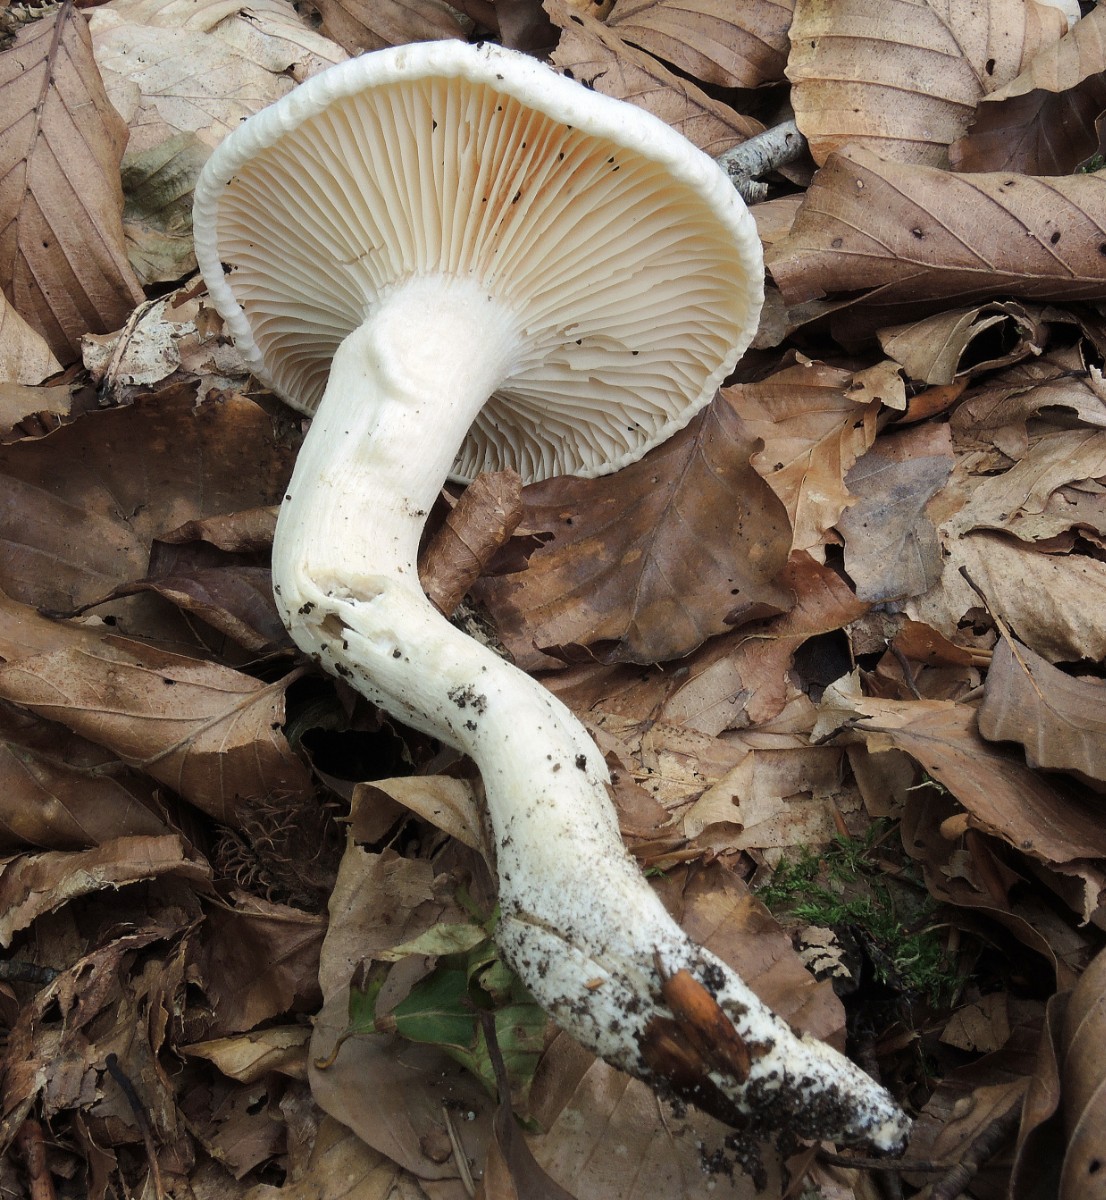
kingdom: Fungi
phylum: Basidiomycota
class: Agaricomycetes
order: Agaricales
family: Hygrophoraceae
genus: Hygrophorus
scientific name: Hygrophorus penarius
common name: spiselig sneglehat
